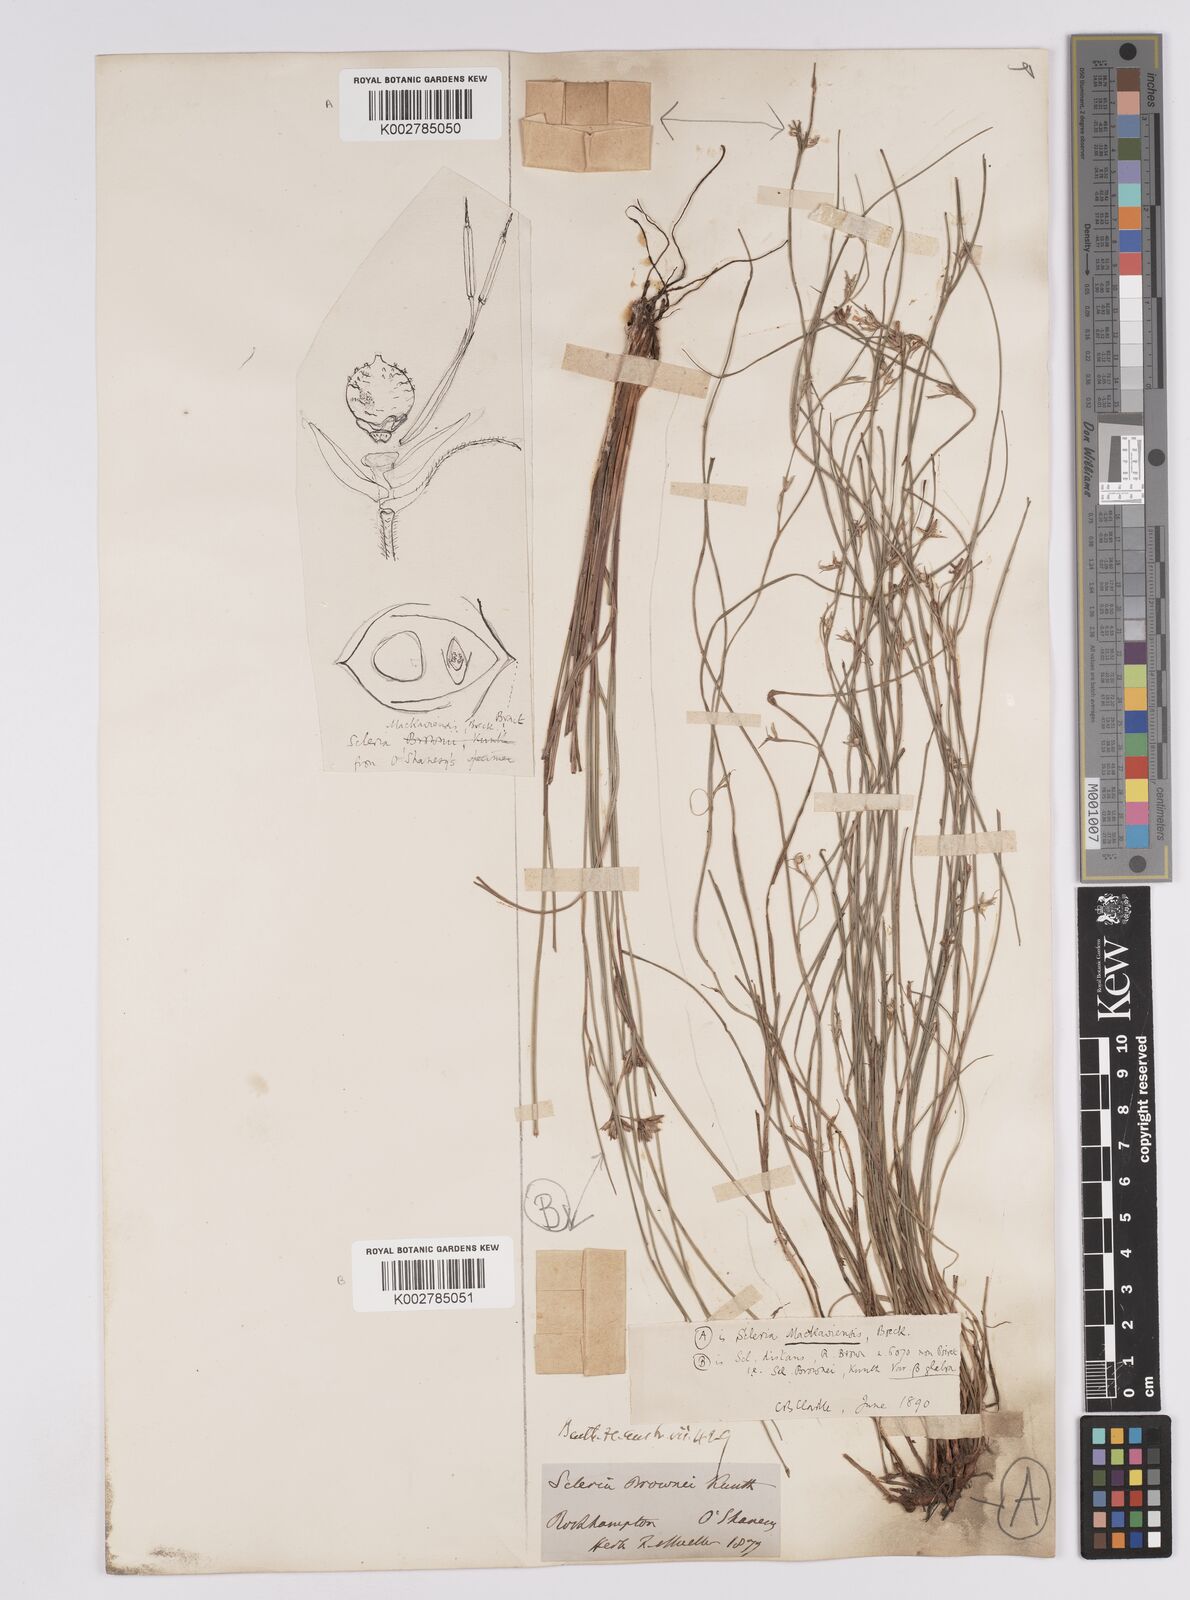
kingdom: Plantae
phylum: Tracheophyta
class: Liliopsida
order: Poales
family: Cyperaceae
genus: Scleria
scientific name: Scleria mackaviensis
